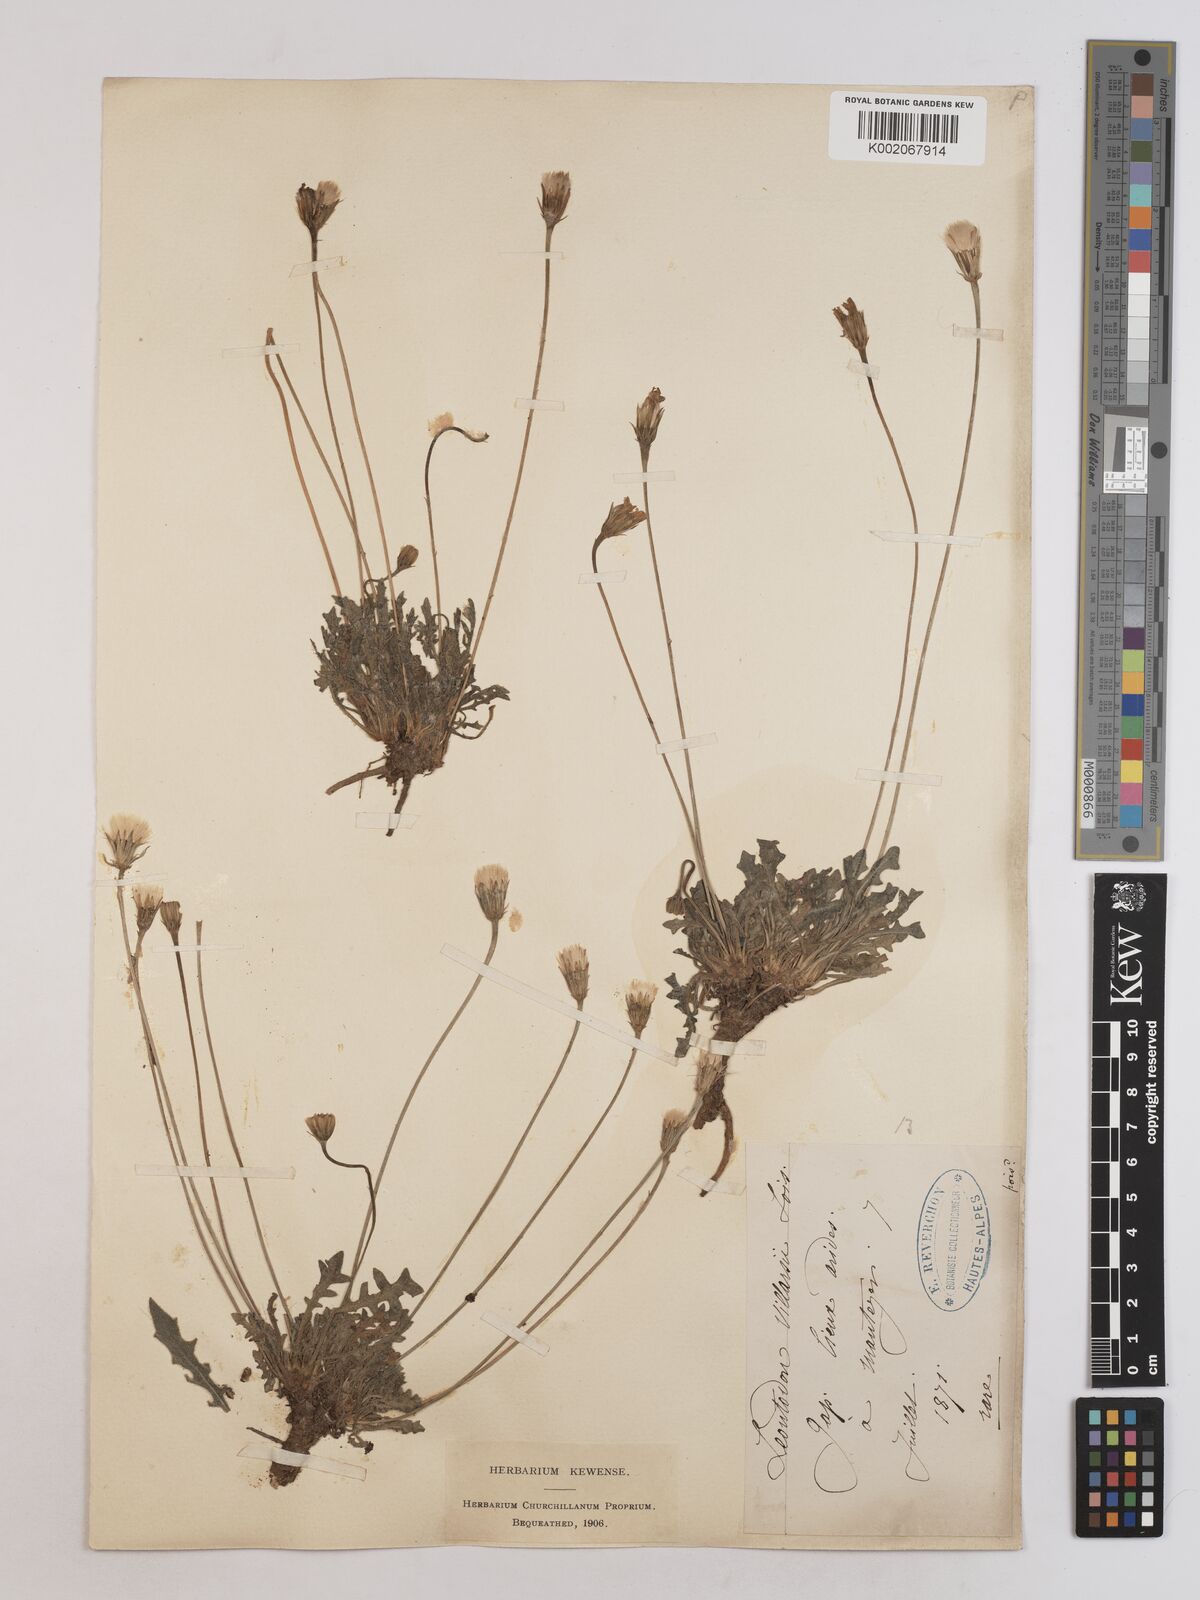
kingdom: Plantae
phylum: Tracheophyta
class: Magnoliopsida
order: Asterales
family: Asteraceae
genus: Leontodon
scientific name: Leontodon hirtus
